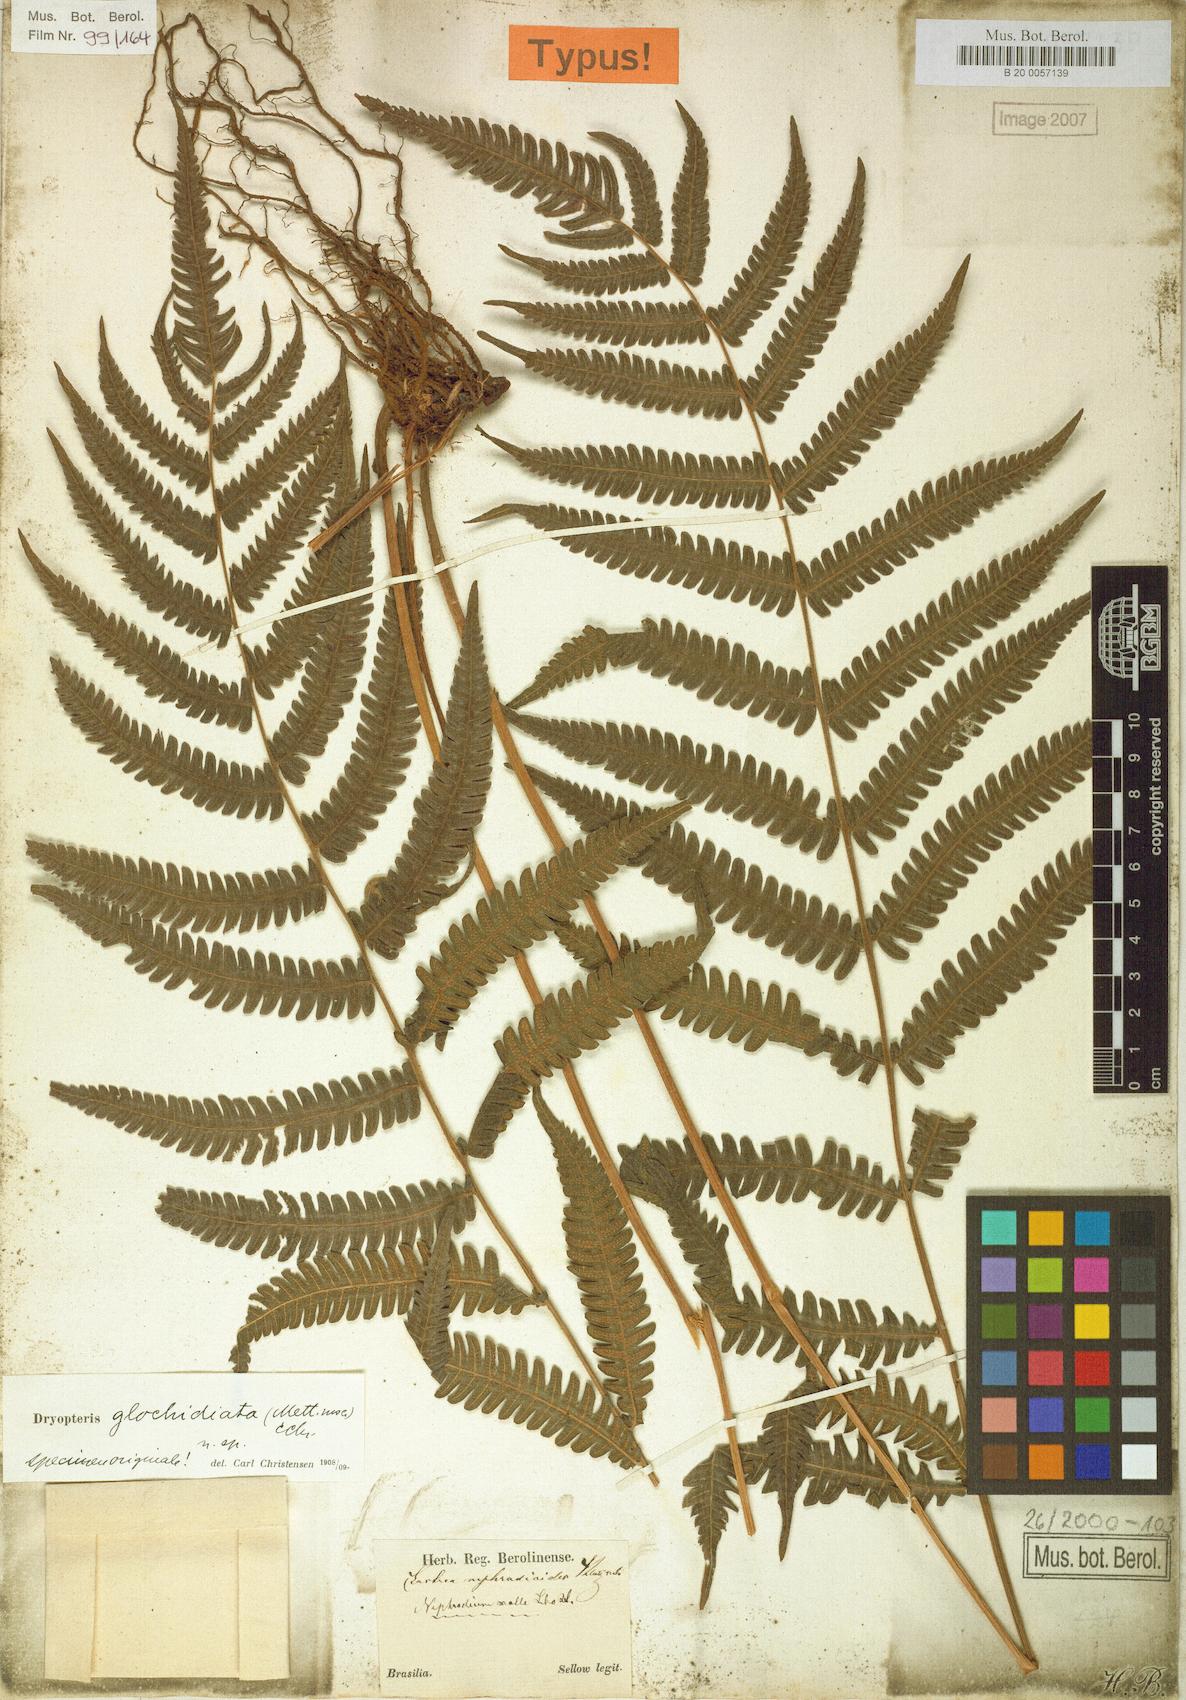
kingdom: Plantae
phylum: Tracheophyta
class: Polypodiopsida
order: Polypodiales
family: Thelypteridaceae
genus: Goniopteris
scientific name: Goniopteris glochidiata
